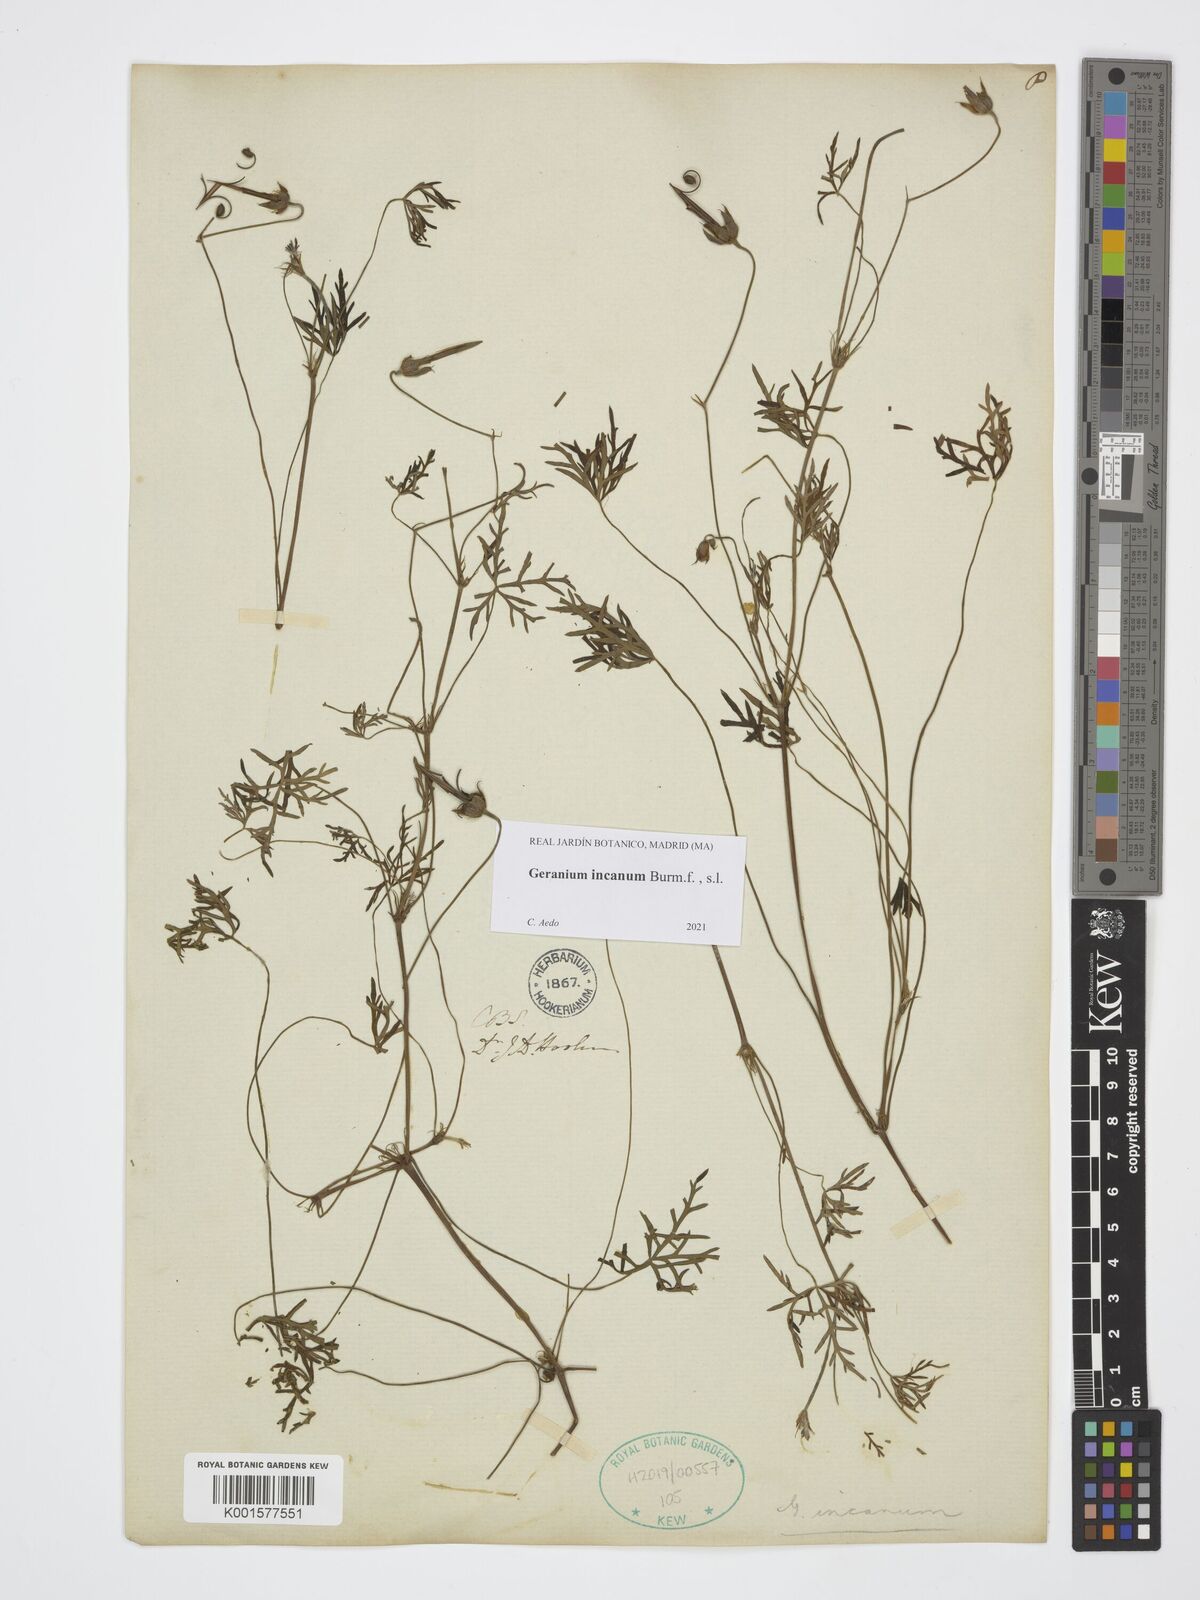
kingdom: Plantae
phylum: Tracheophyta
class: Magnoliopsida
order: Geraniales
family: Geraniaceae
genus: Geranium
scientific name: Geranium incanum
